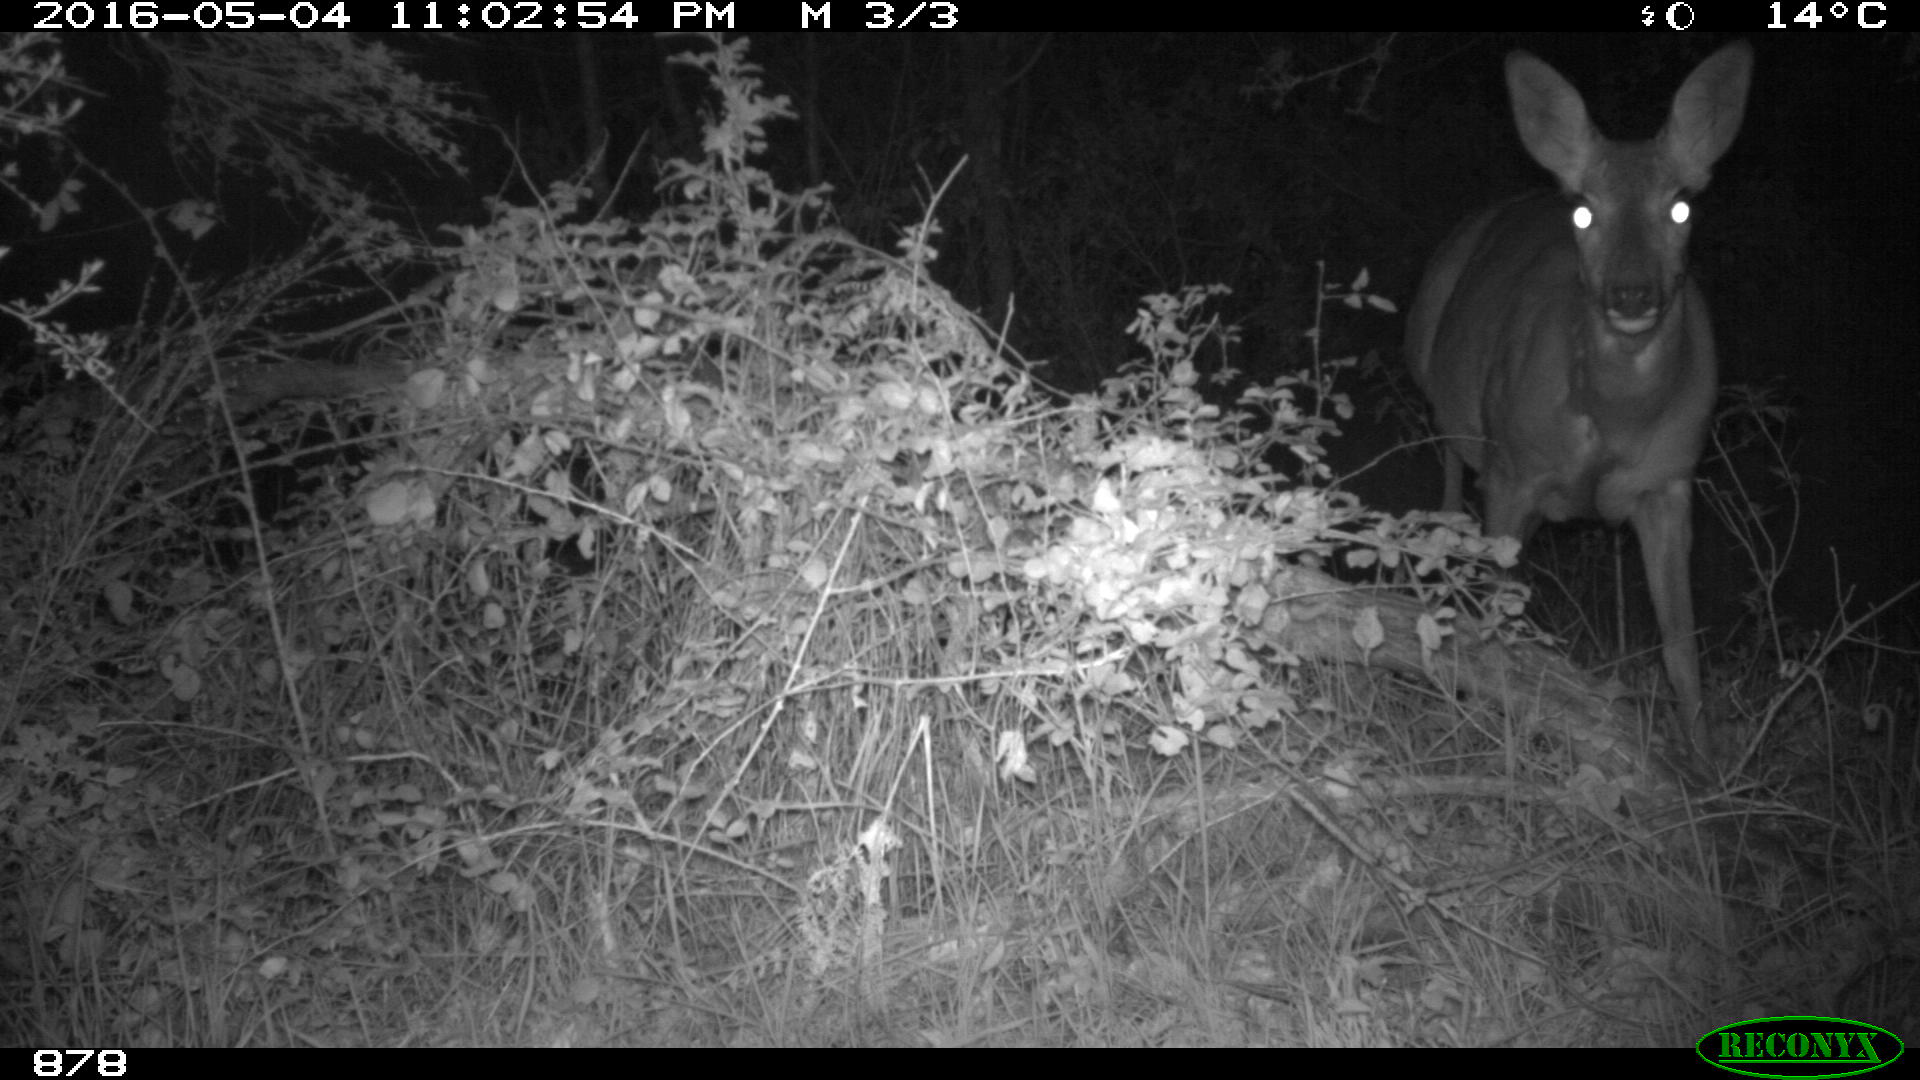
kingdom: Animalia
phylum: Chordata
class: Mammalia
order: Artiodactyla
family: Cervidae
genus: Capreolus
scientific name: Capreolus capreolus
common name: Western roe deer
